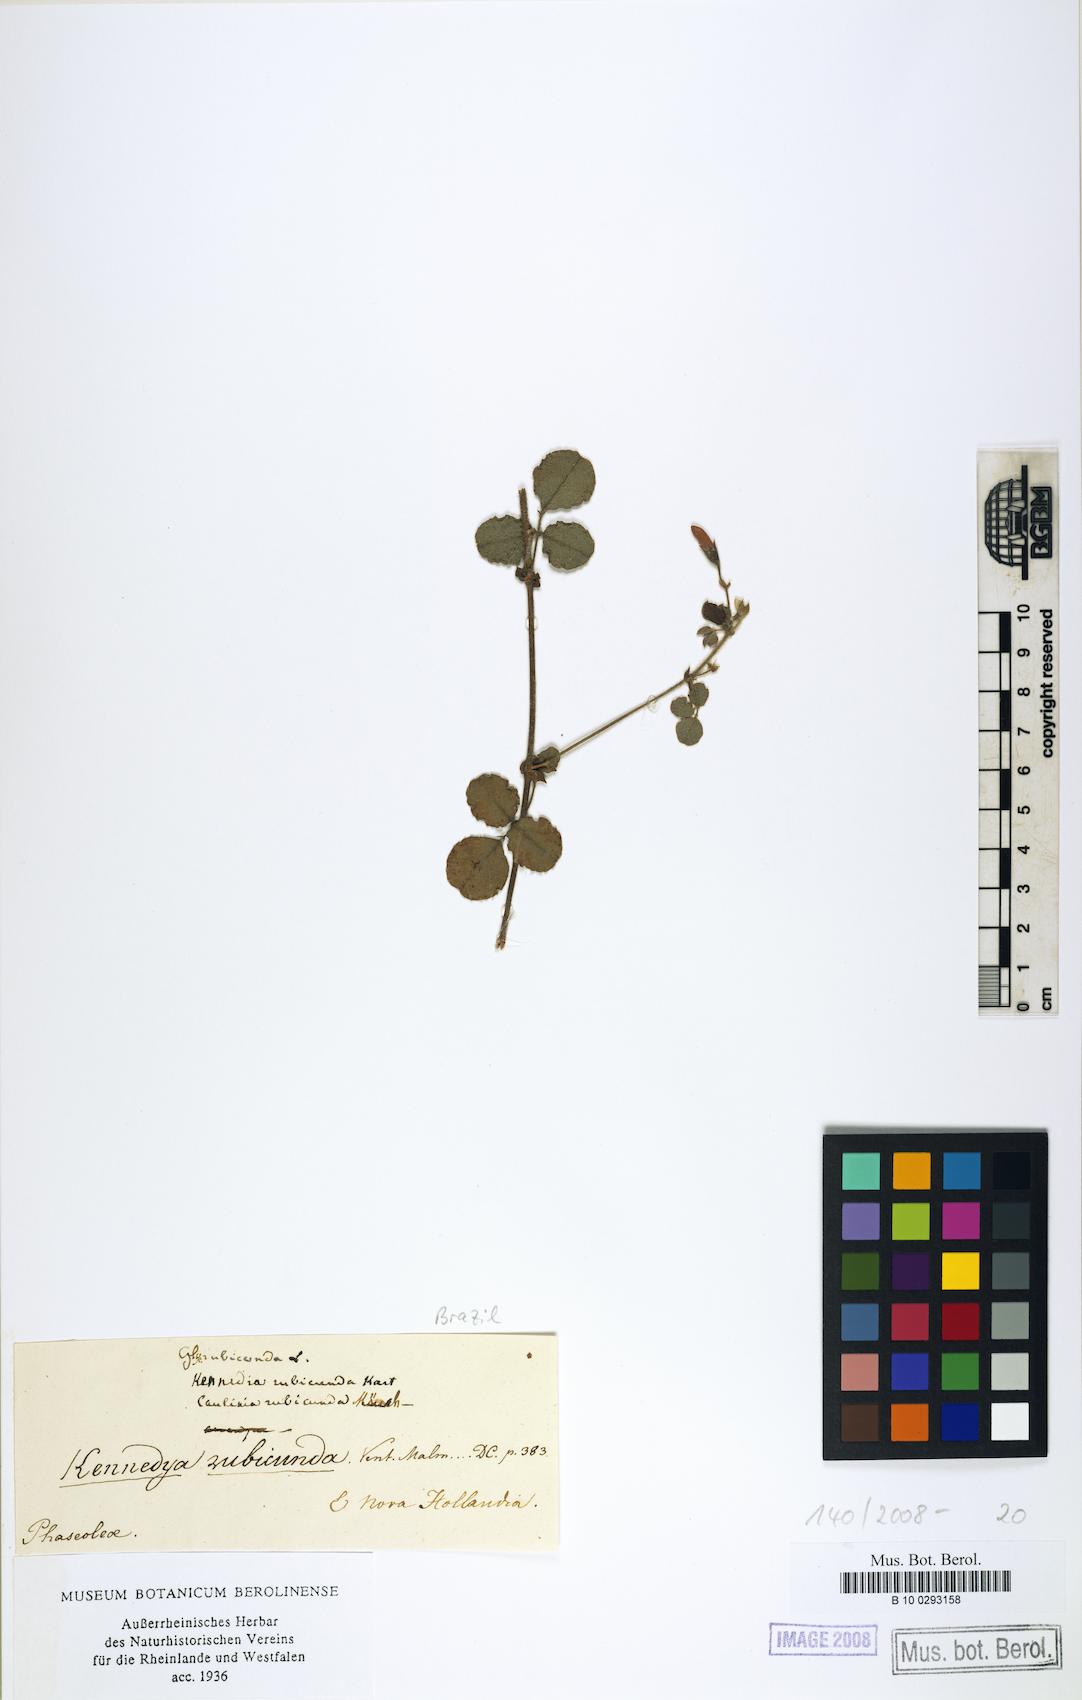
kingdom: Plantae
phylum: Tracheophyta
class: Magnoliopsida
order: Fabales
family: Fabaceae
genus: Kennedia
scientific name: Kennedia rubicunda
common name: Red kennedy-pea
